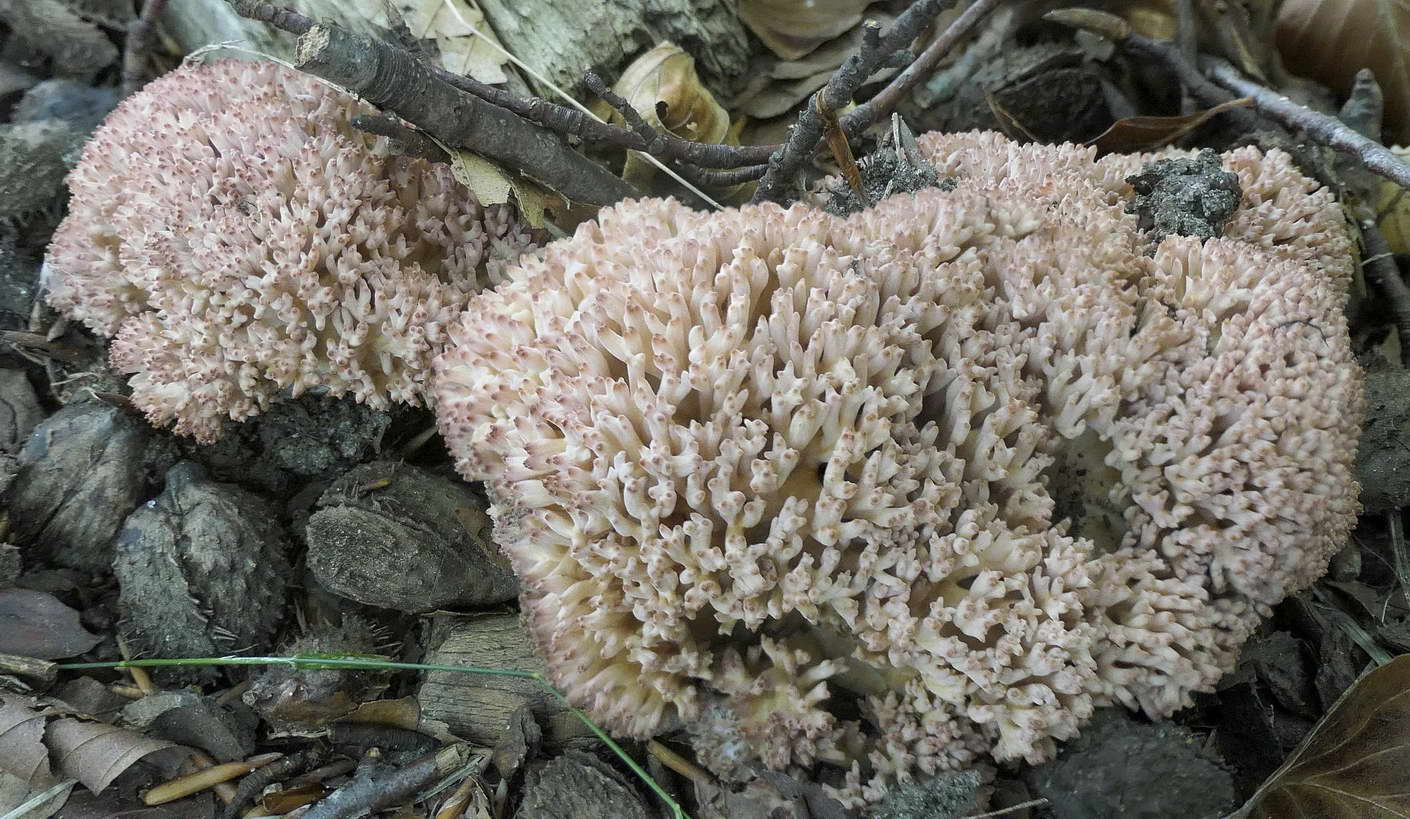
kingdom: Fungi
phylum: Basidiomycota
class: Agaricomycetes
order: Gomphales
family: Gomphaceae
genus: Ramaria
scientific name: Ramaria botrytis
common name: drue-koralsvamp
